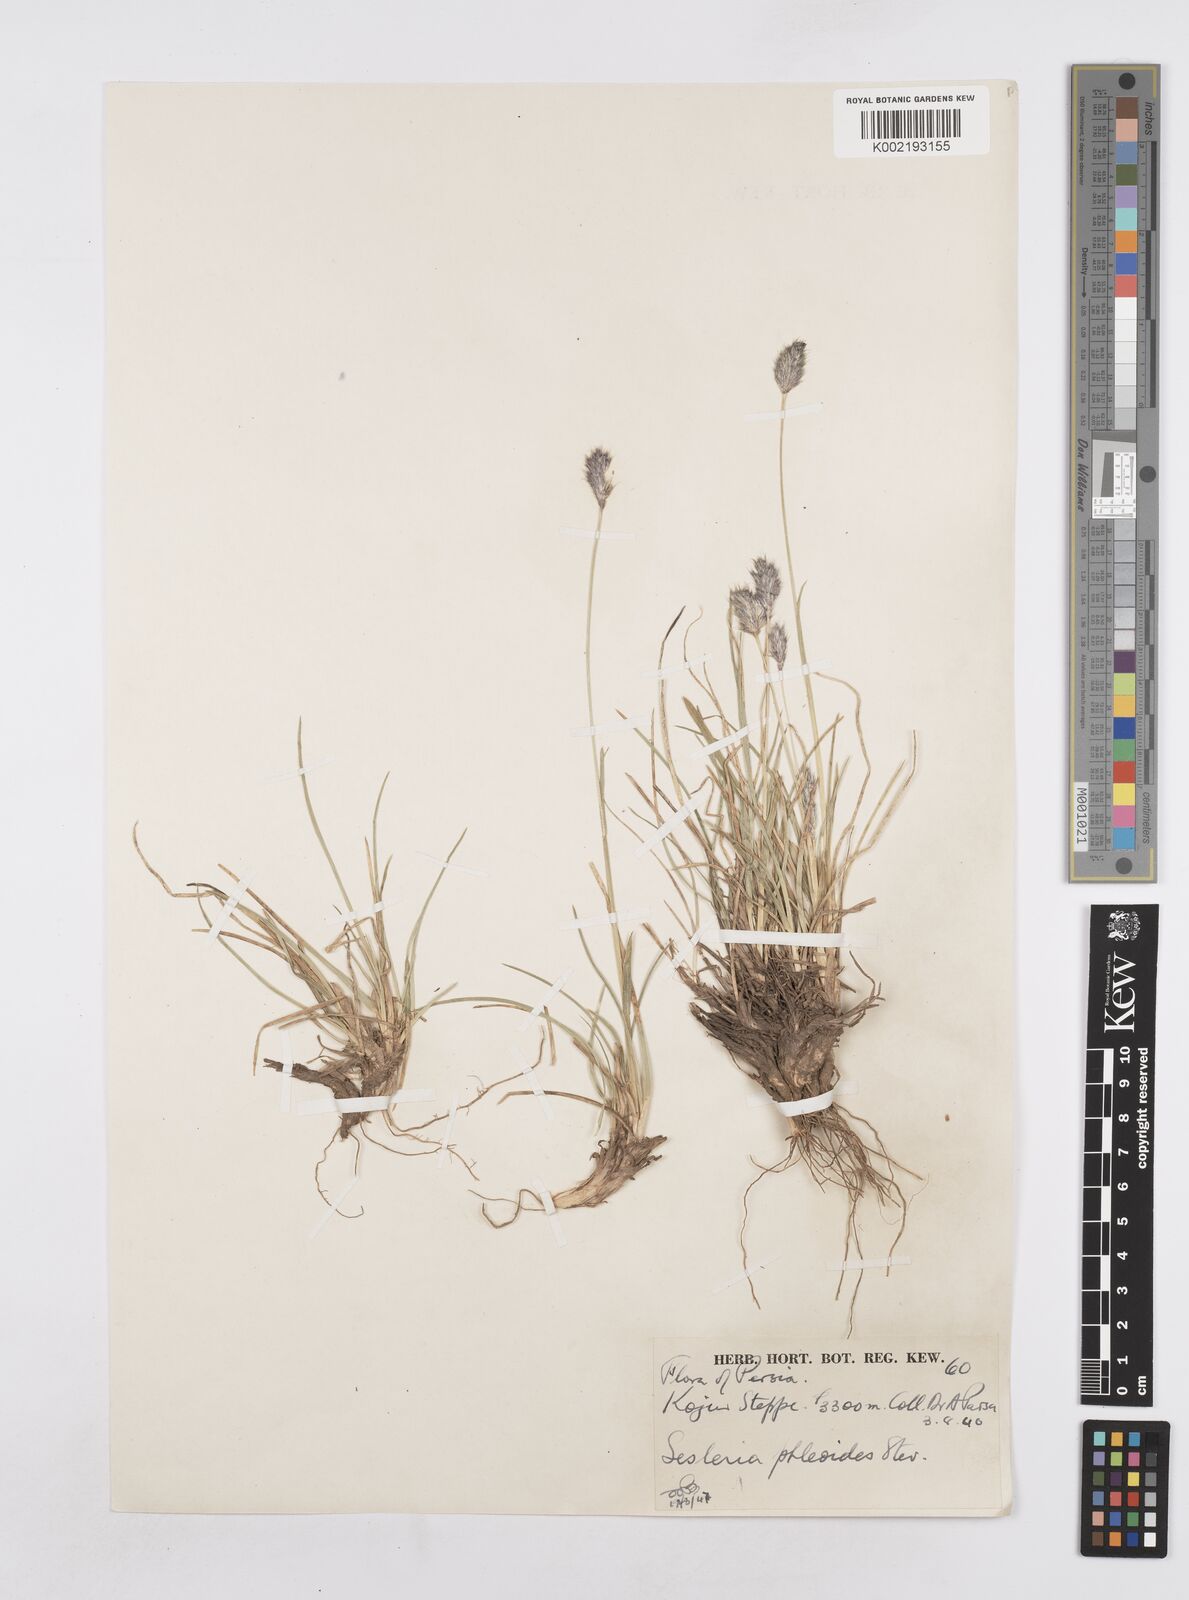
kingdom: Plantae
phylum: Tracheophyta
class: Liliopsida
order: Poales
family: Poaceae
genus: Sesleria
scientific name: Sesleria phleoides
